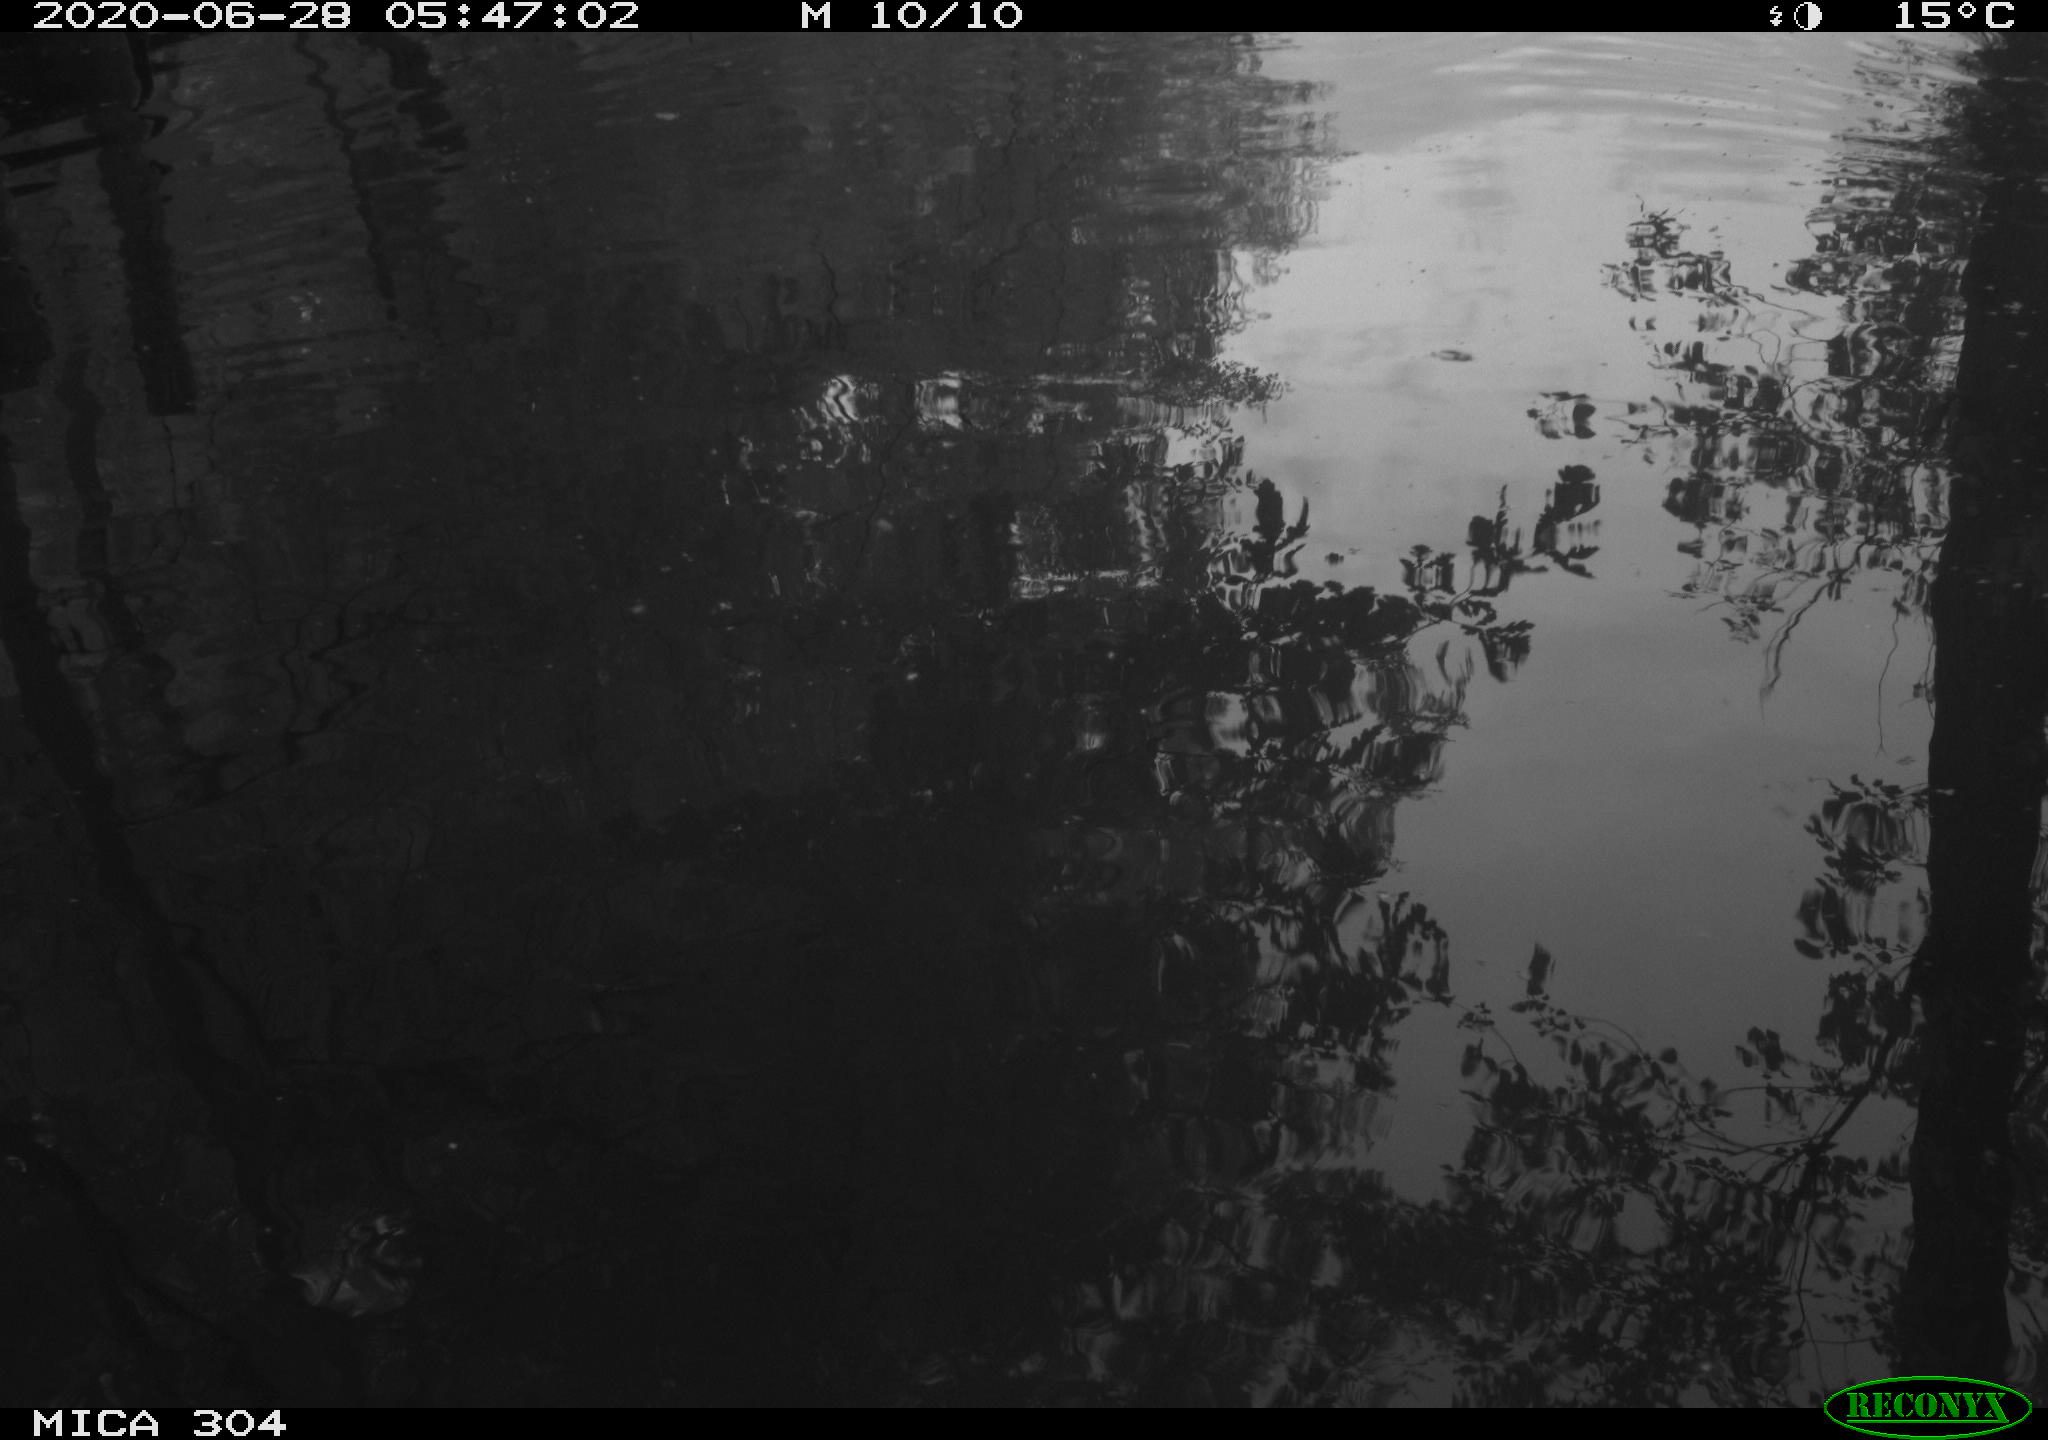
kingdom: Animalia
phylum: Chordata
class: Aves
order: Gruiformes
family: Rallidae
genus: Gallinula
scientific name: Gallinula chloropus
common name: Common moorhen
